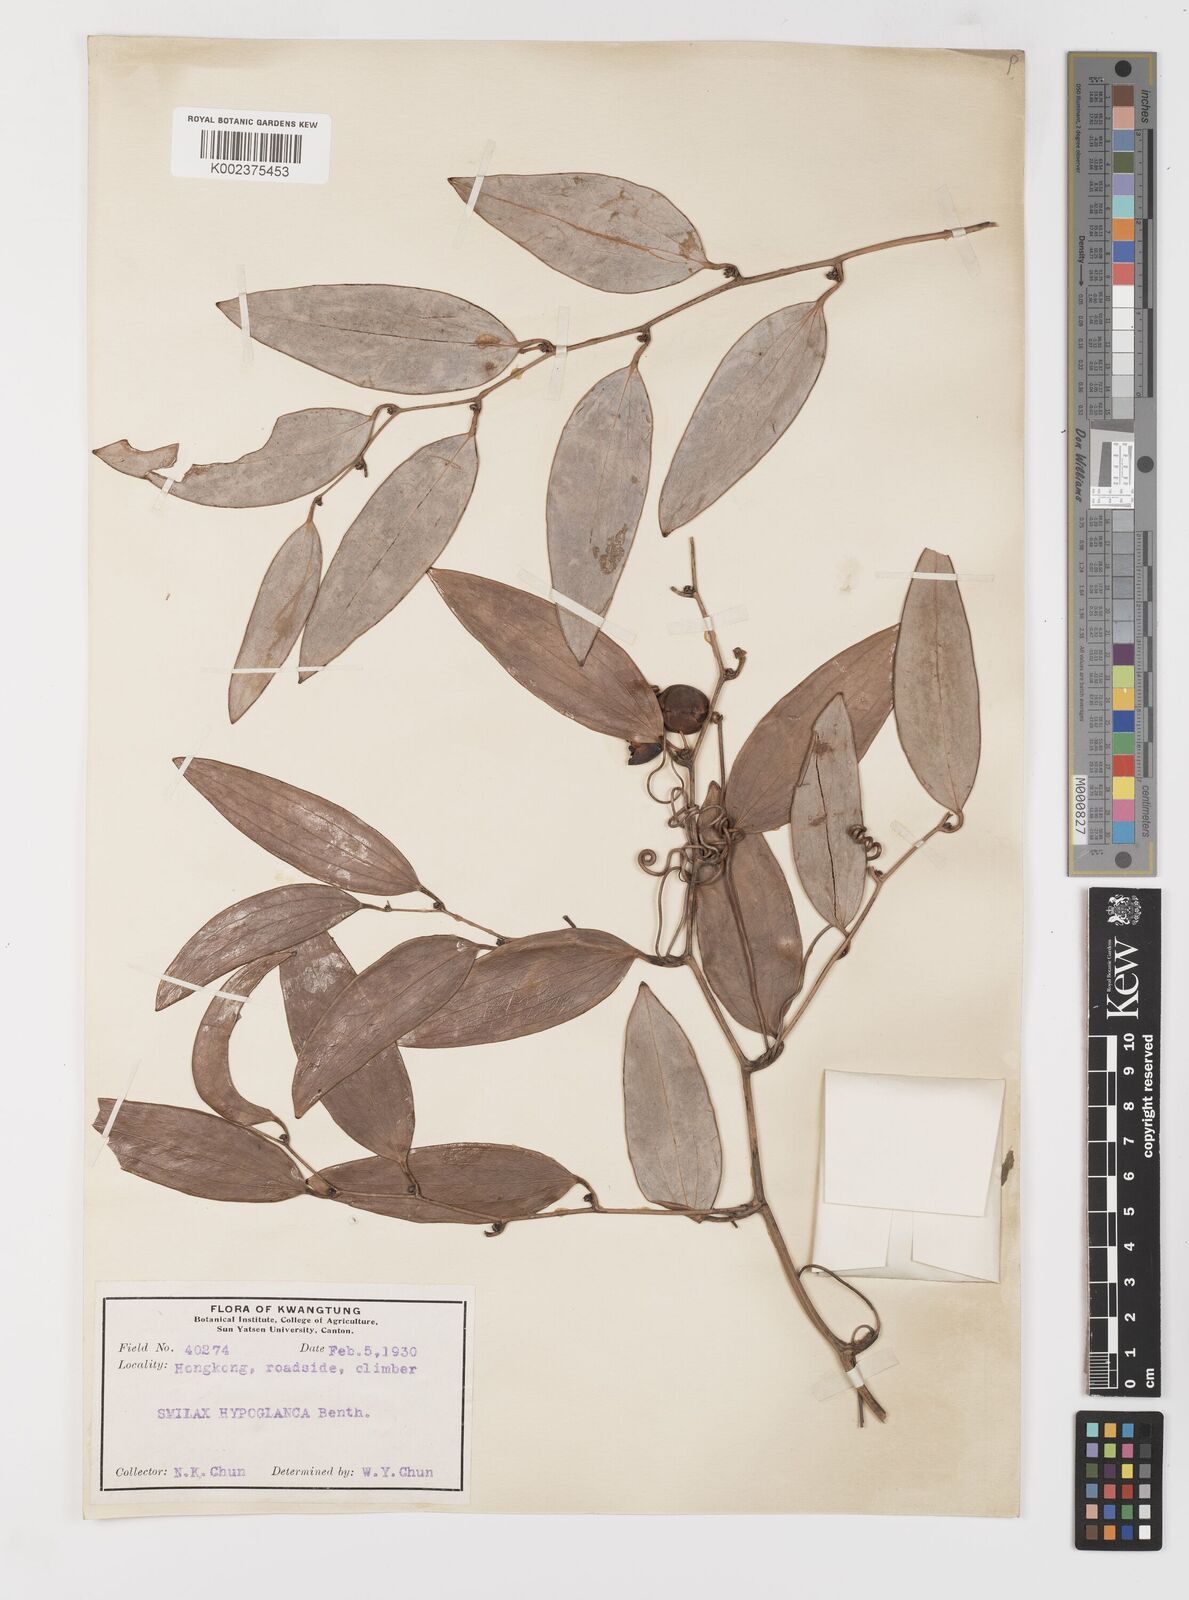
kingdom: Plantae
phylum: Tracheophyta
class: Liliopsida
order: Liliales
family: Smilacaceae
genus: Smilax
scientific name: Smilax hypoglauca
